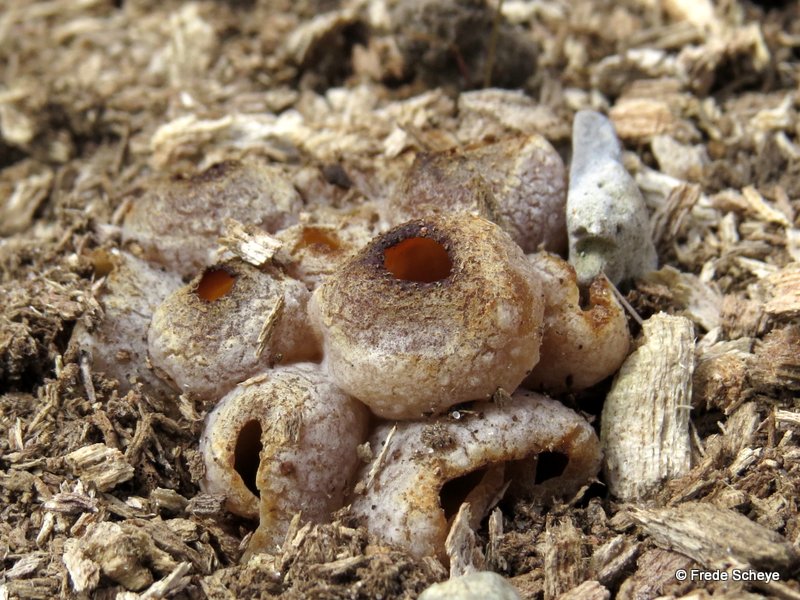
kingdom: Fungi
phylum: Ascomycota
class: Pezizomycetes
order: Pezizales
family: Pezizaceae
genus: Peziza
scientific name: Peziza vesiculosa
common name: blære-bægersvamp
